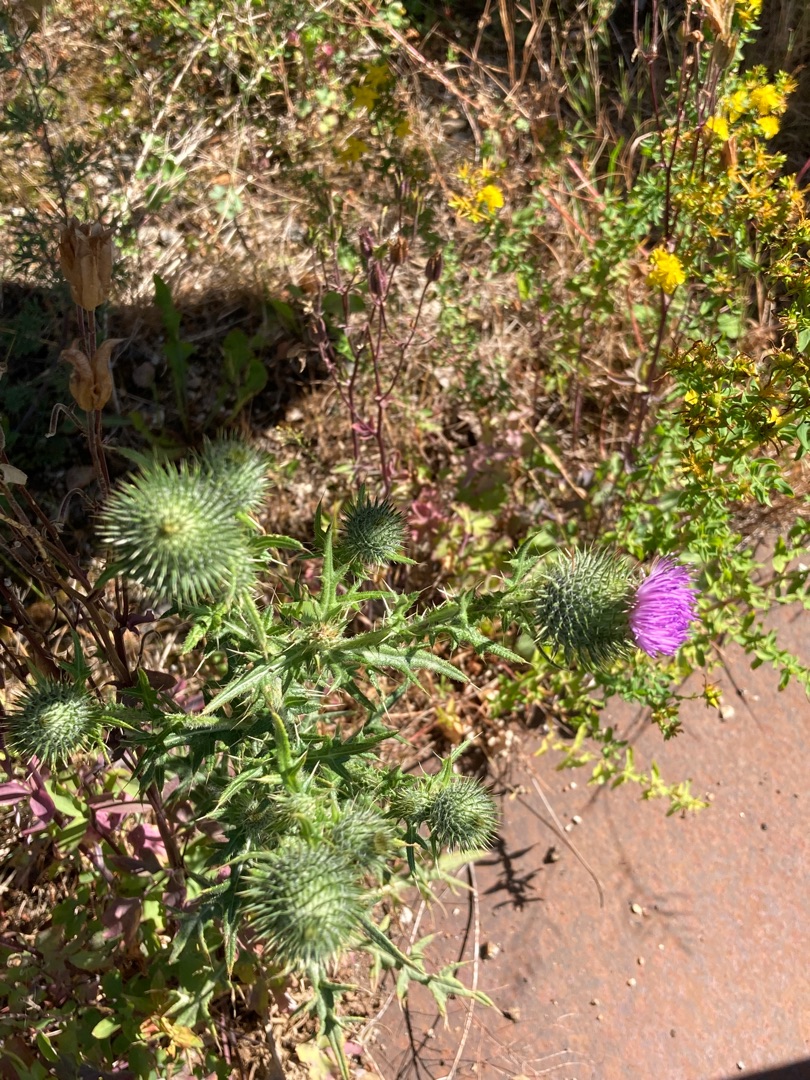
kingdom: Plantae
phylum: Tracheophyta
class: Magnoliopsida
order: Asterales
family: Asteraceae
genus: Cirsium
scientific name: Cirsium vulgare
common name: Horse-tidsel
